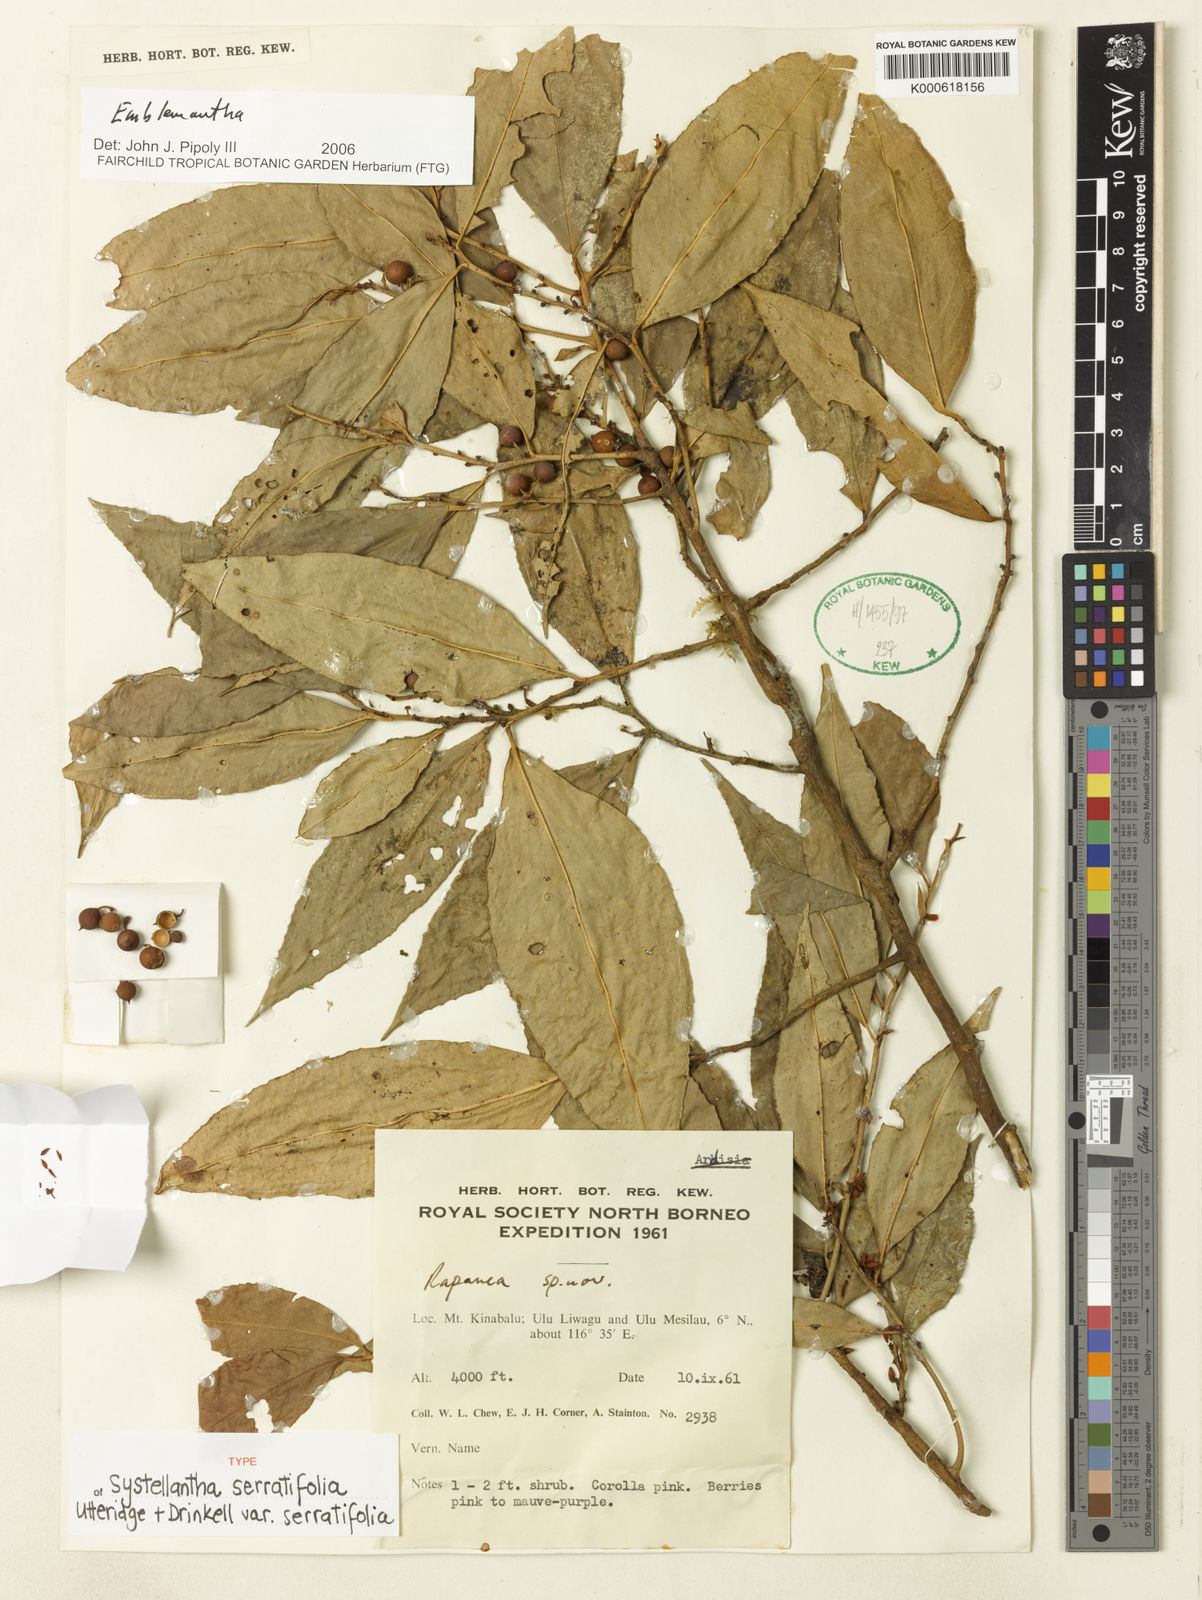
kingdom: Plantae
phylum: Tracheophyta
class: Magnoliopsida
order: Ericales
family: Primulaceae
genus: Systellantha
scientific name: Systellantha
